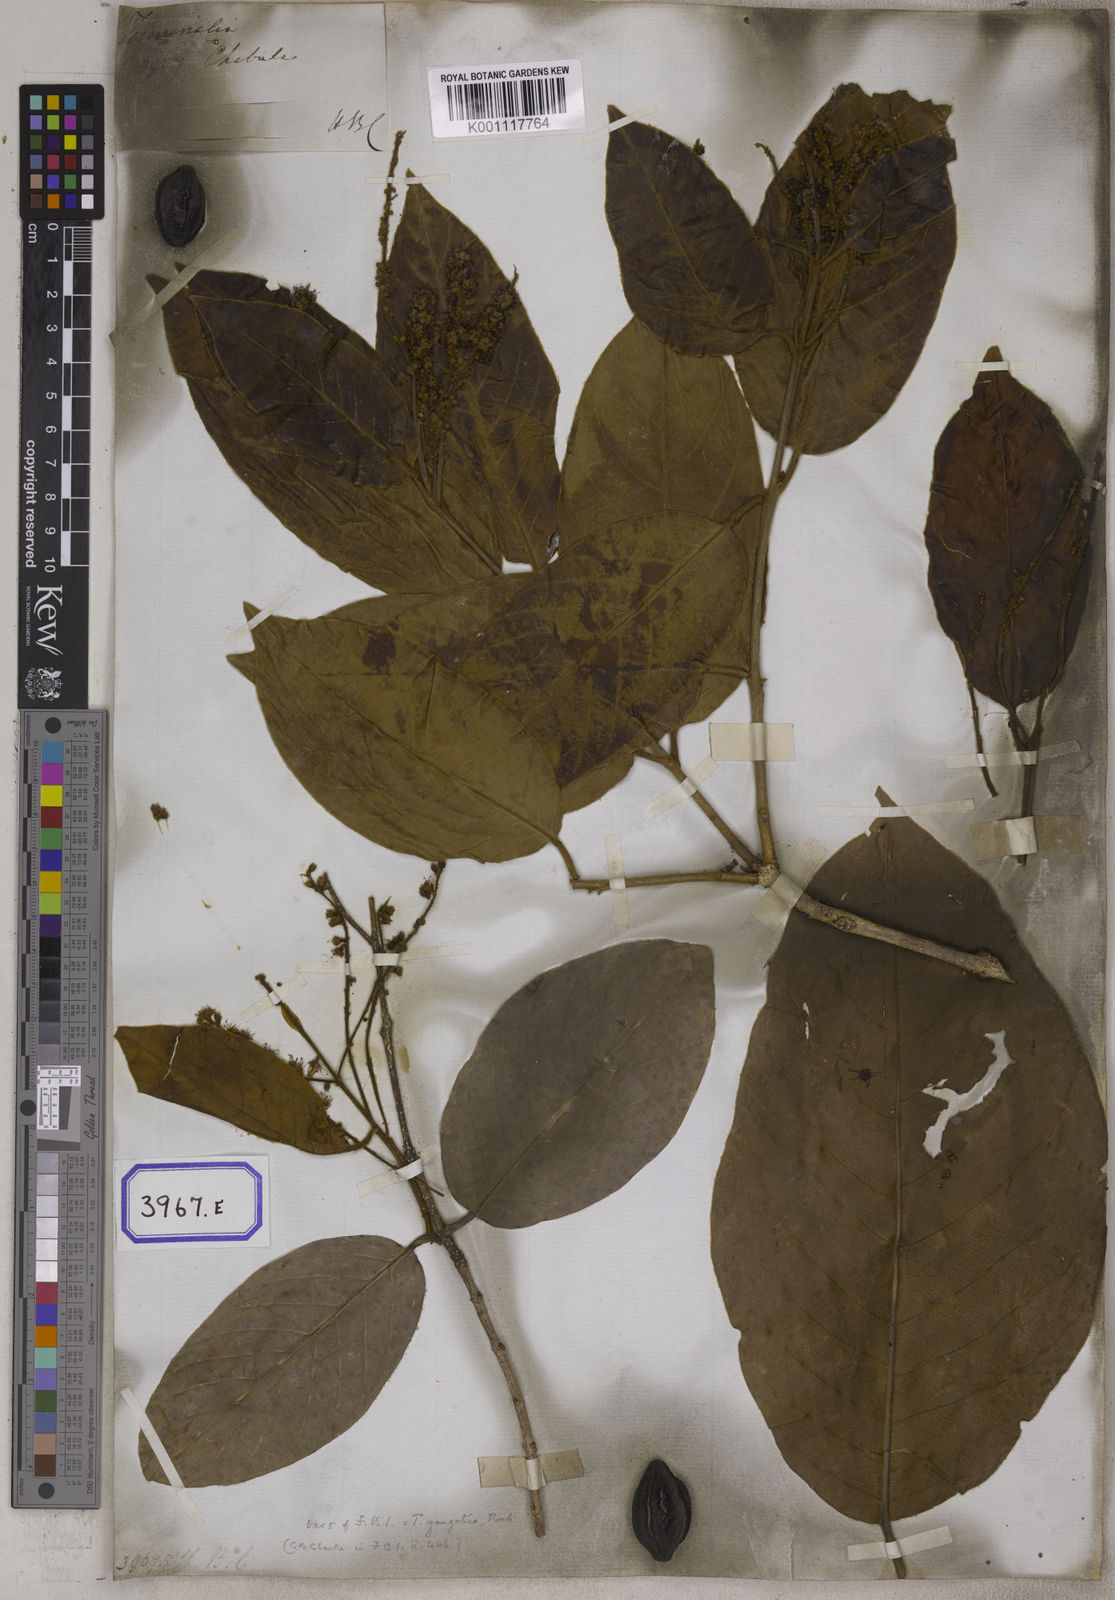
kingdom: Plantae
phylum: Tracheophyta
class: Magnoliopsida
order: Myrtales
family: Combretaceae
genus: Terminalia
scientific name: Terminalia chebula
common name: Myrobalan
